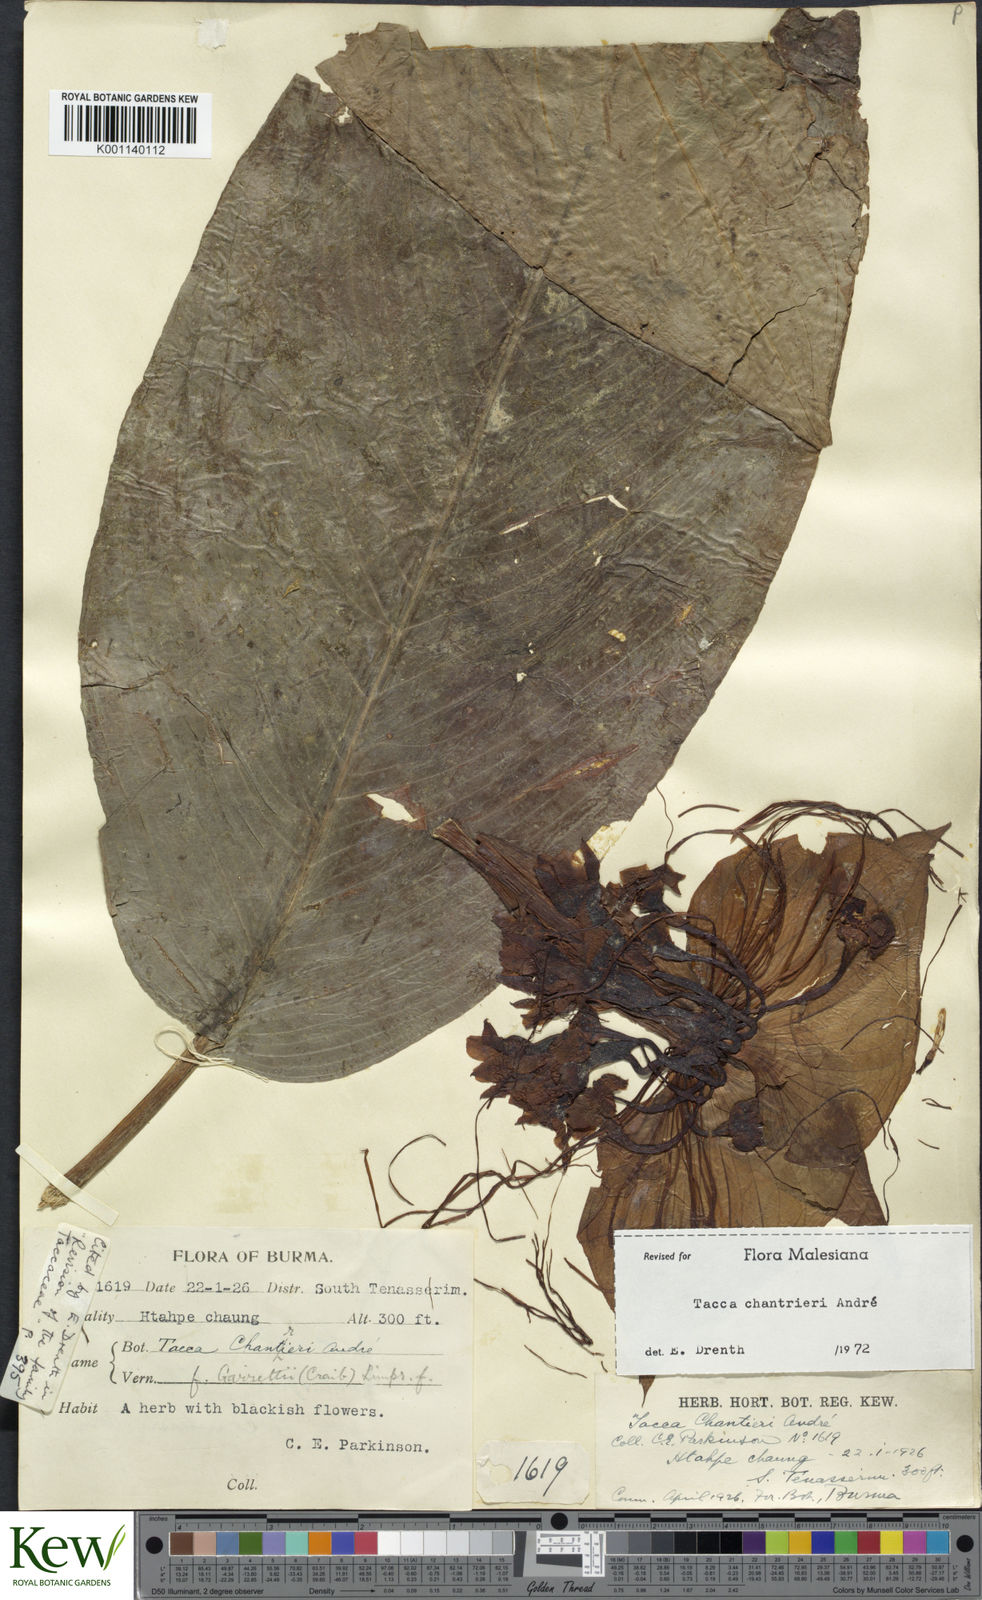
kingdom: Plantae
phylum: Tracheophyta
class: Liliopsida
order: Dioscoreales
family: Dioscoreaceae
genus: Tacca
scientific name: Tacca
